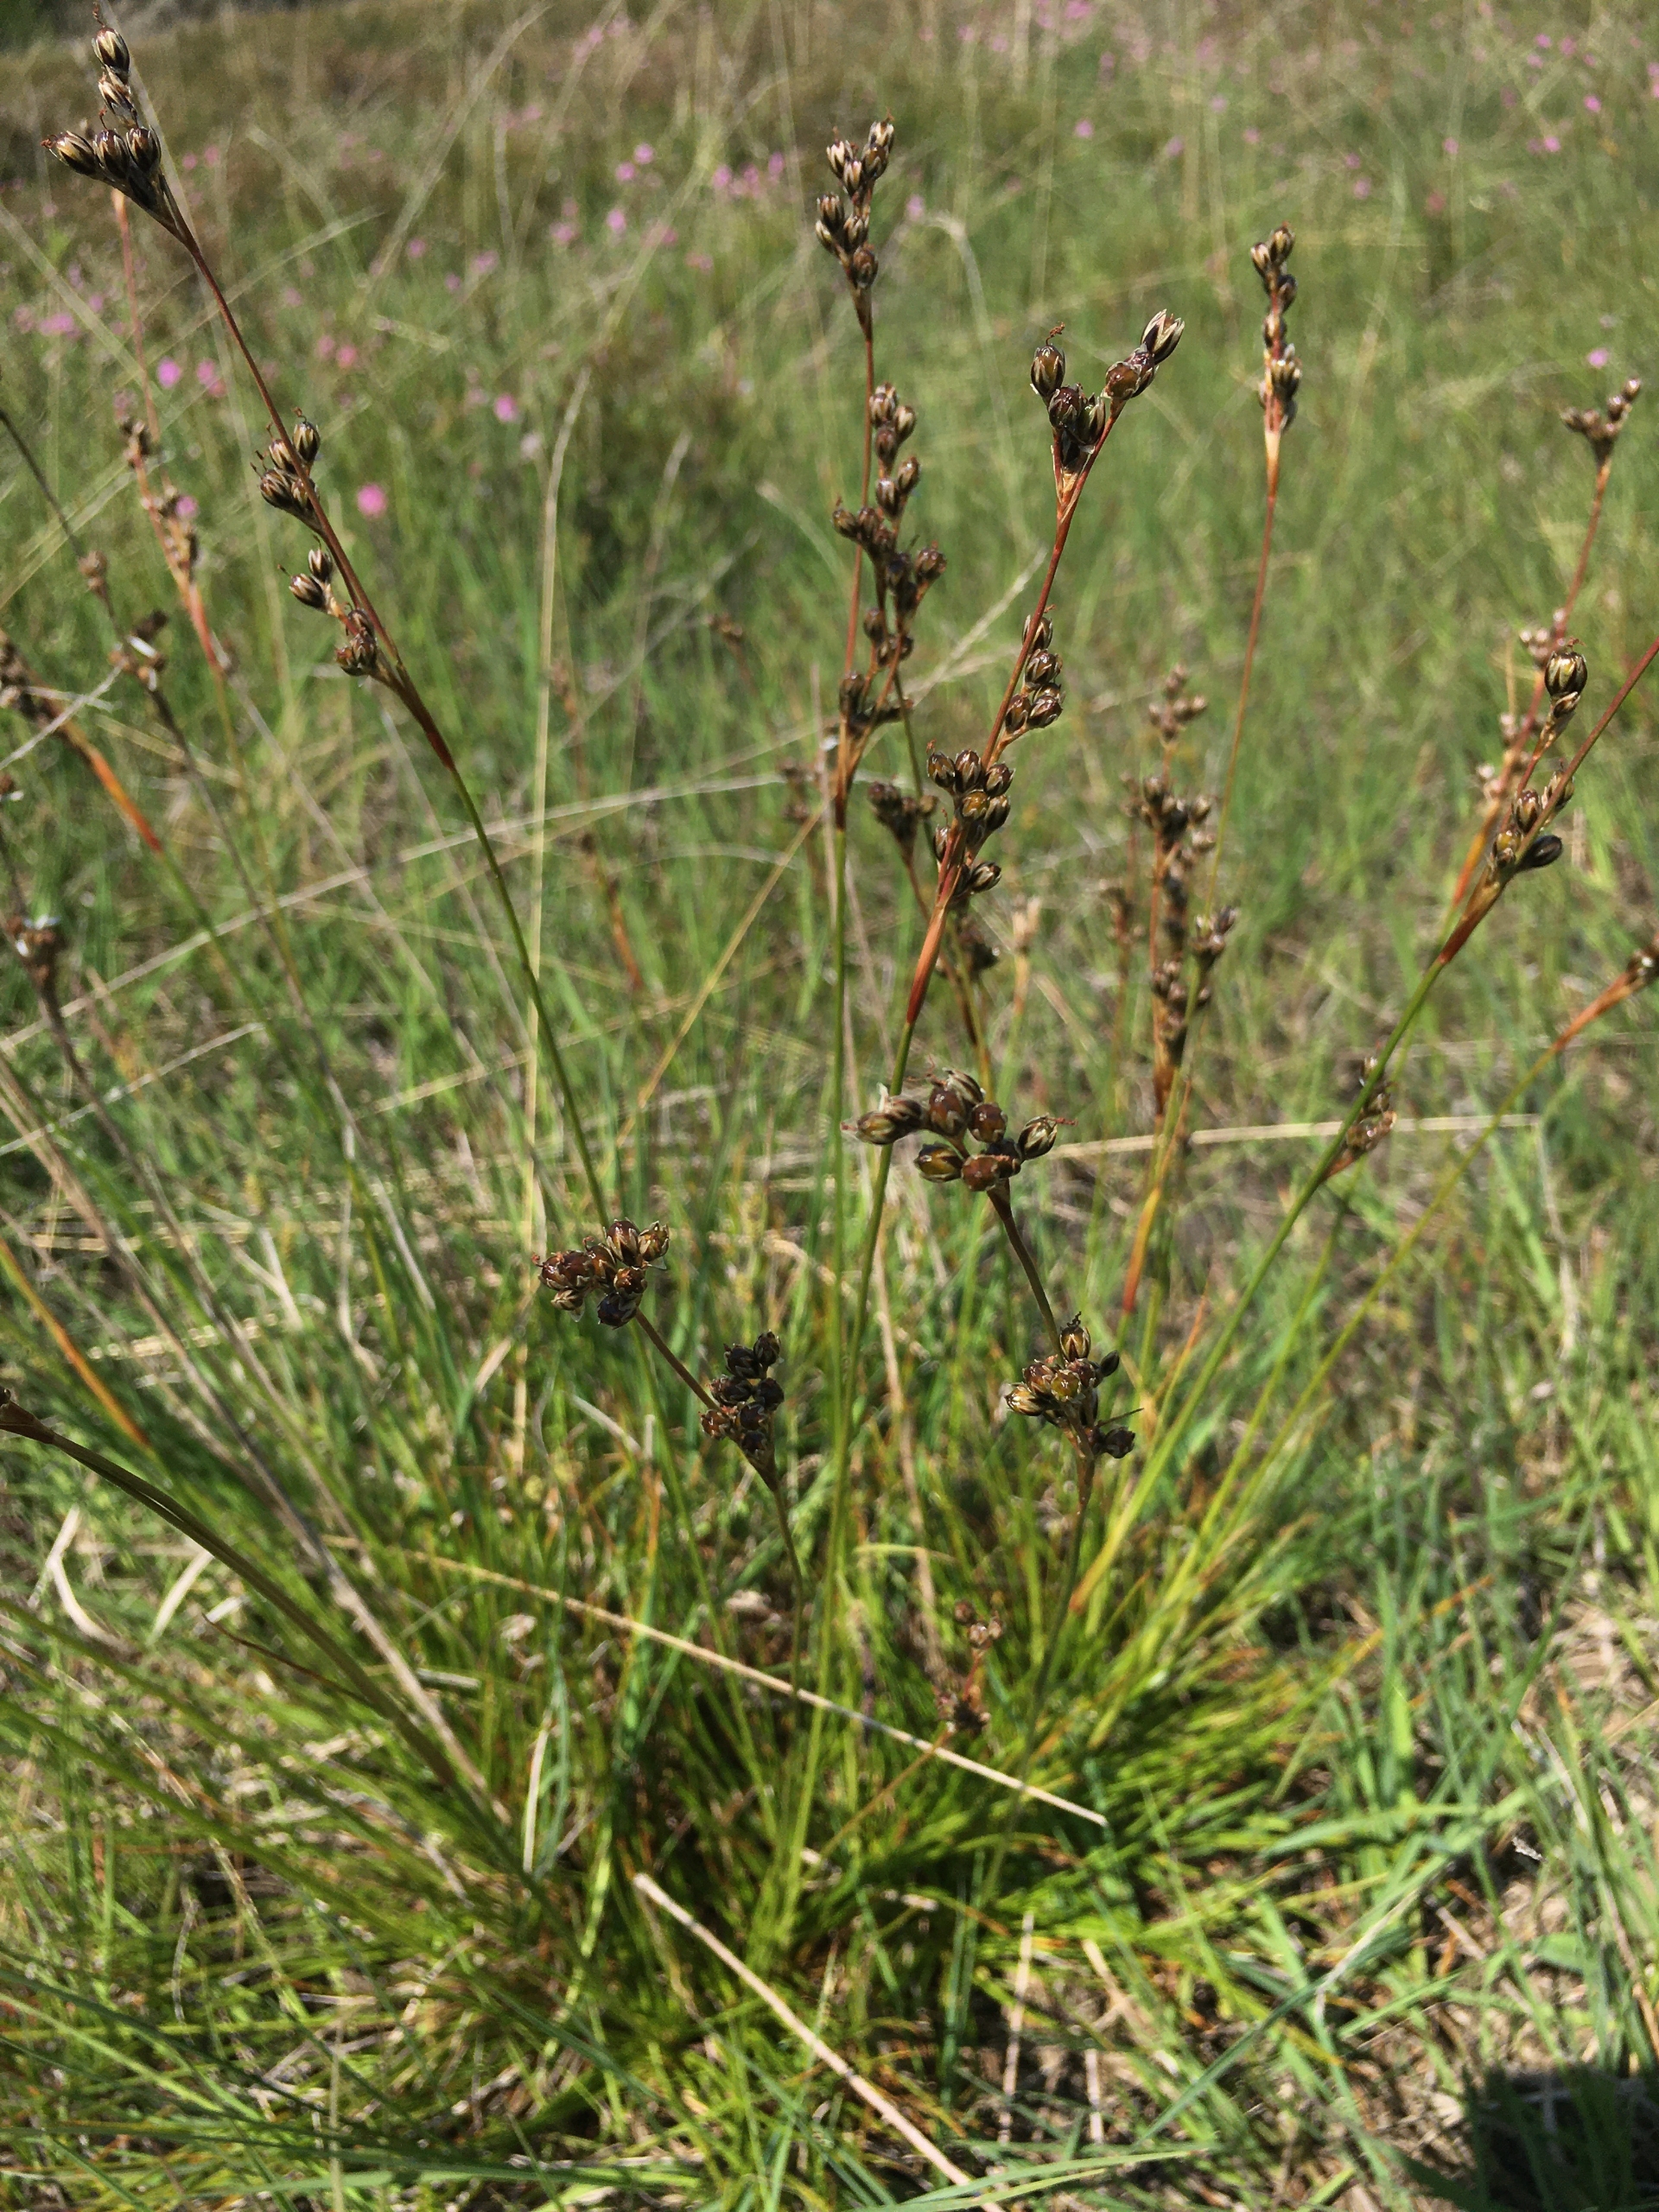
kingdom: Plantae
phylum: Tracheophyta
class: Liliopsida
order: Poales
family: Juncaceae
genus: Juncus
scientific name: Juncus squarrosus
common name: Børste-siv
